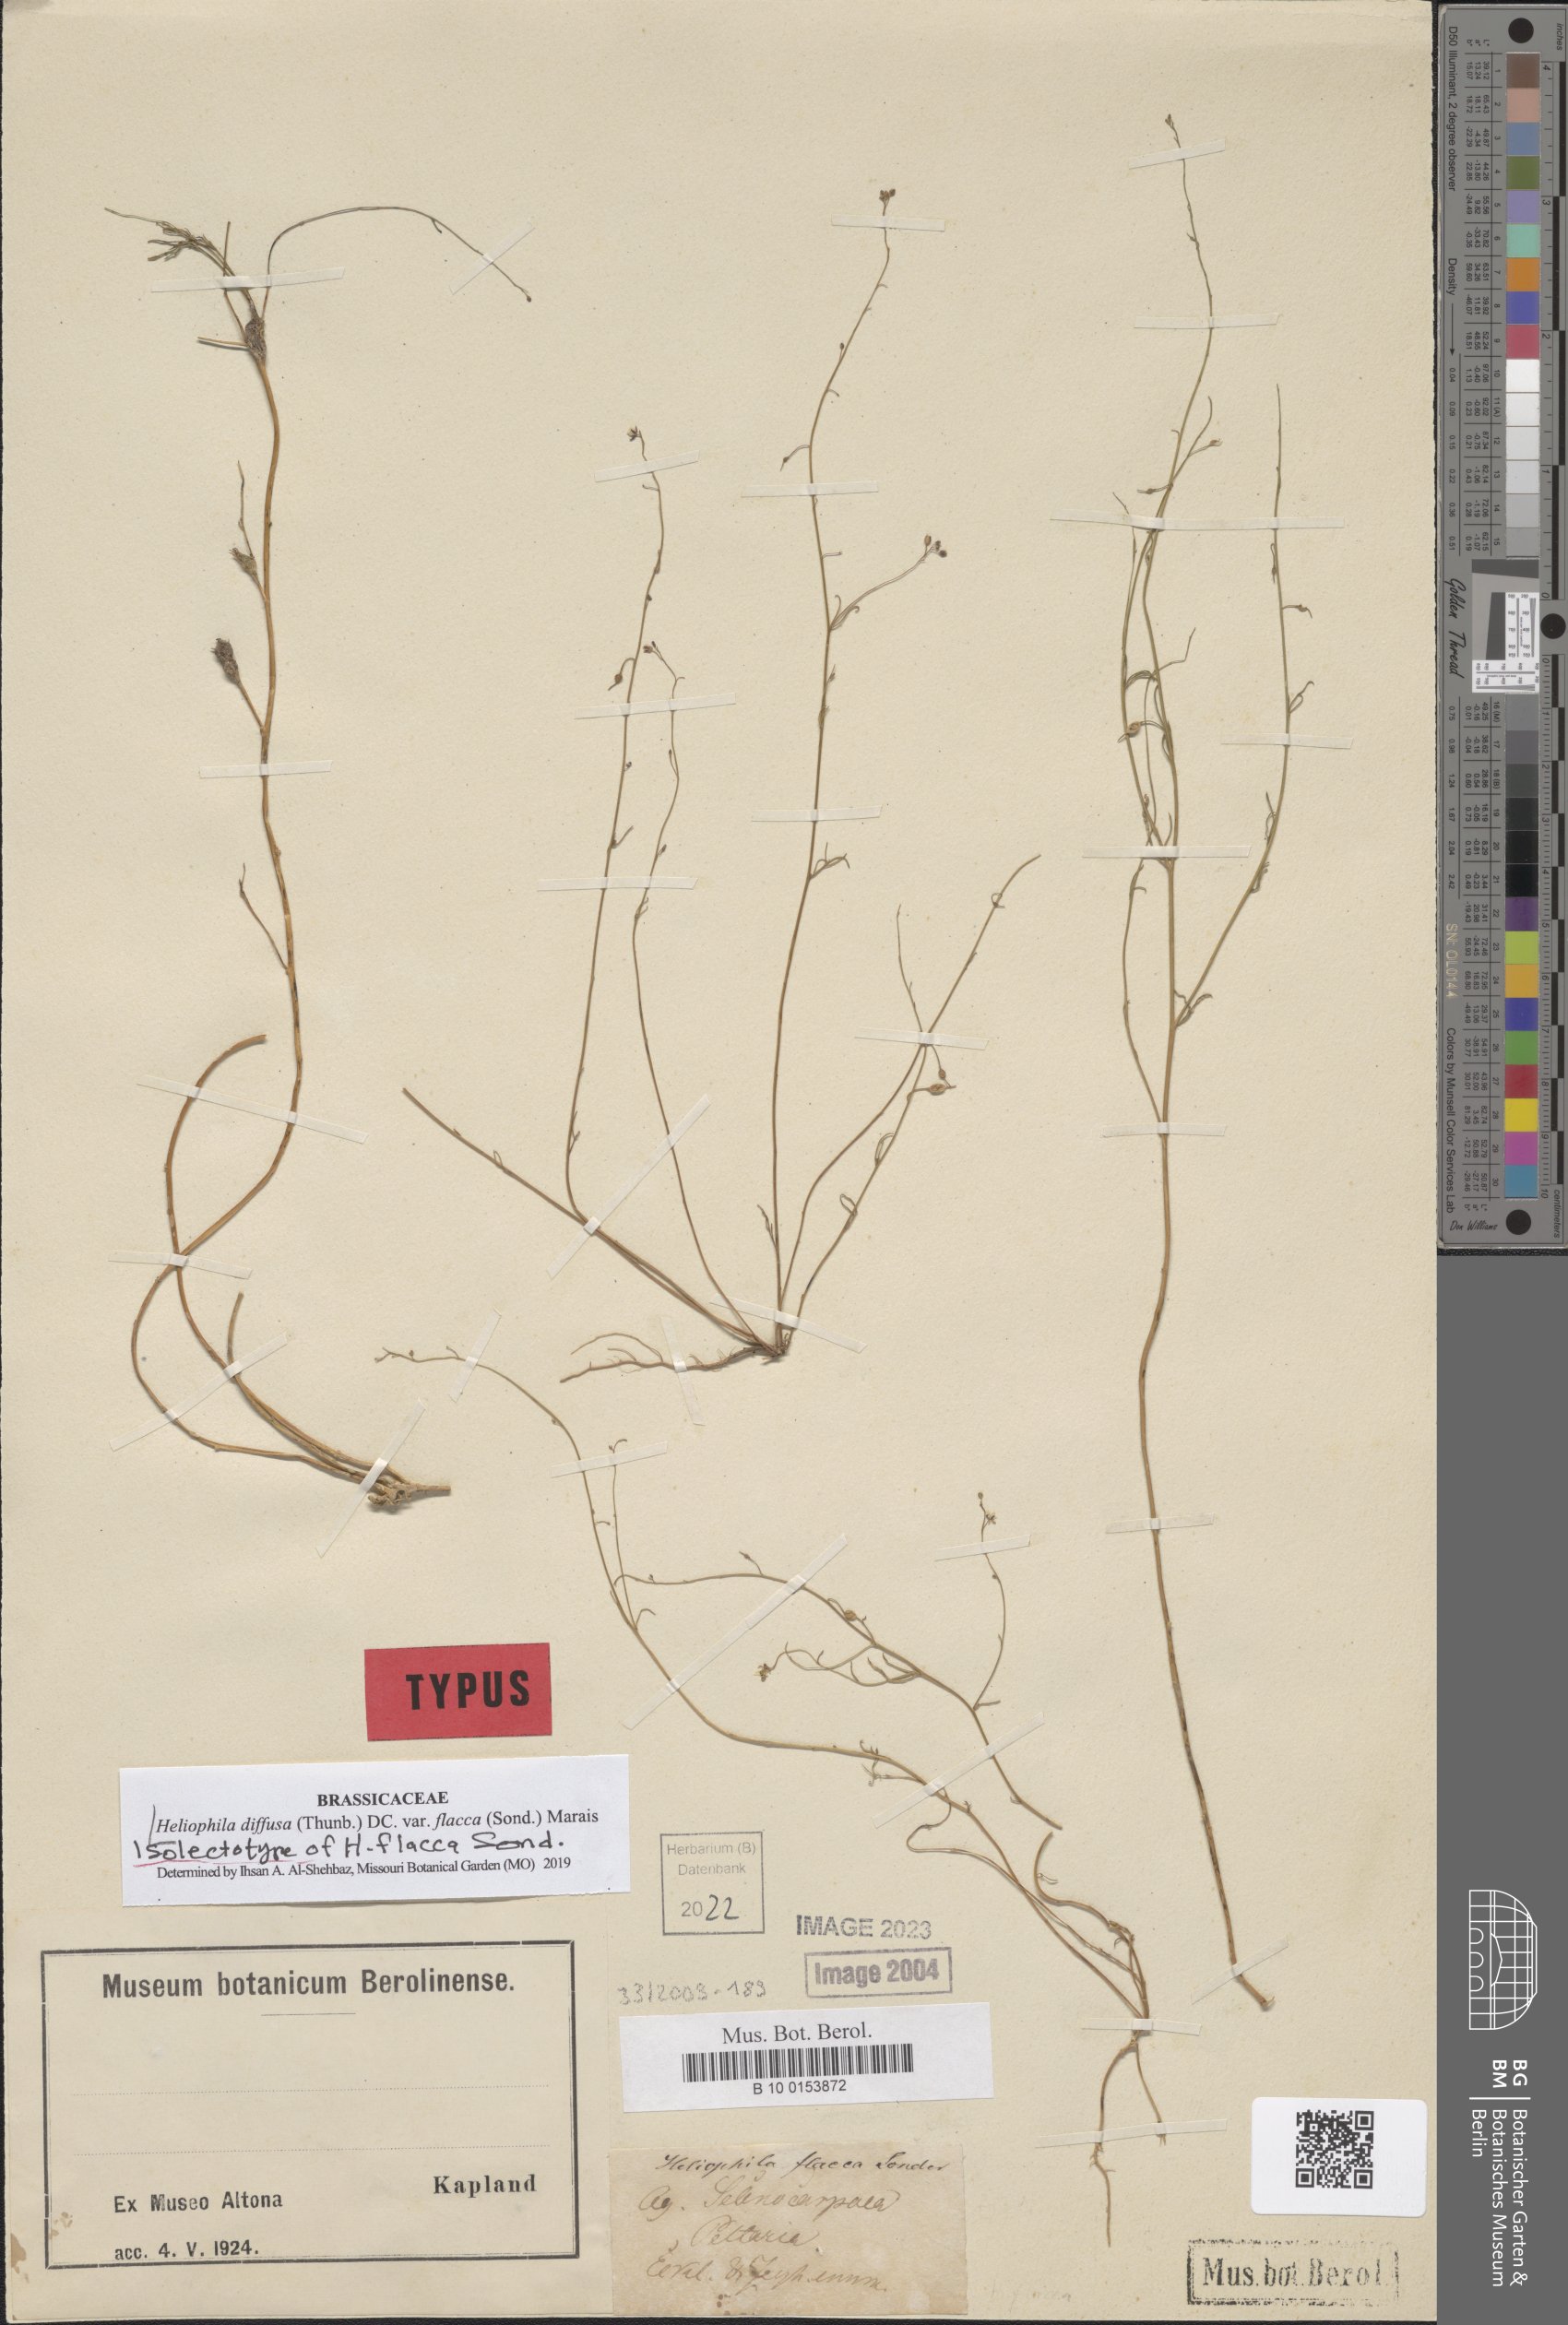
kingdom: Plantae
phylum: Tracheophyta
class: Magnoliopsida
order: Brassicales
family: Brassicaceae
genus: Heliophila
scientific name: Heliophila diffusa
